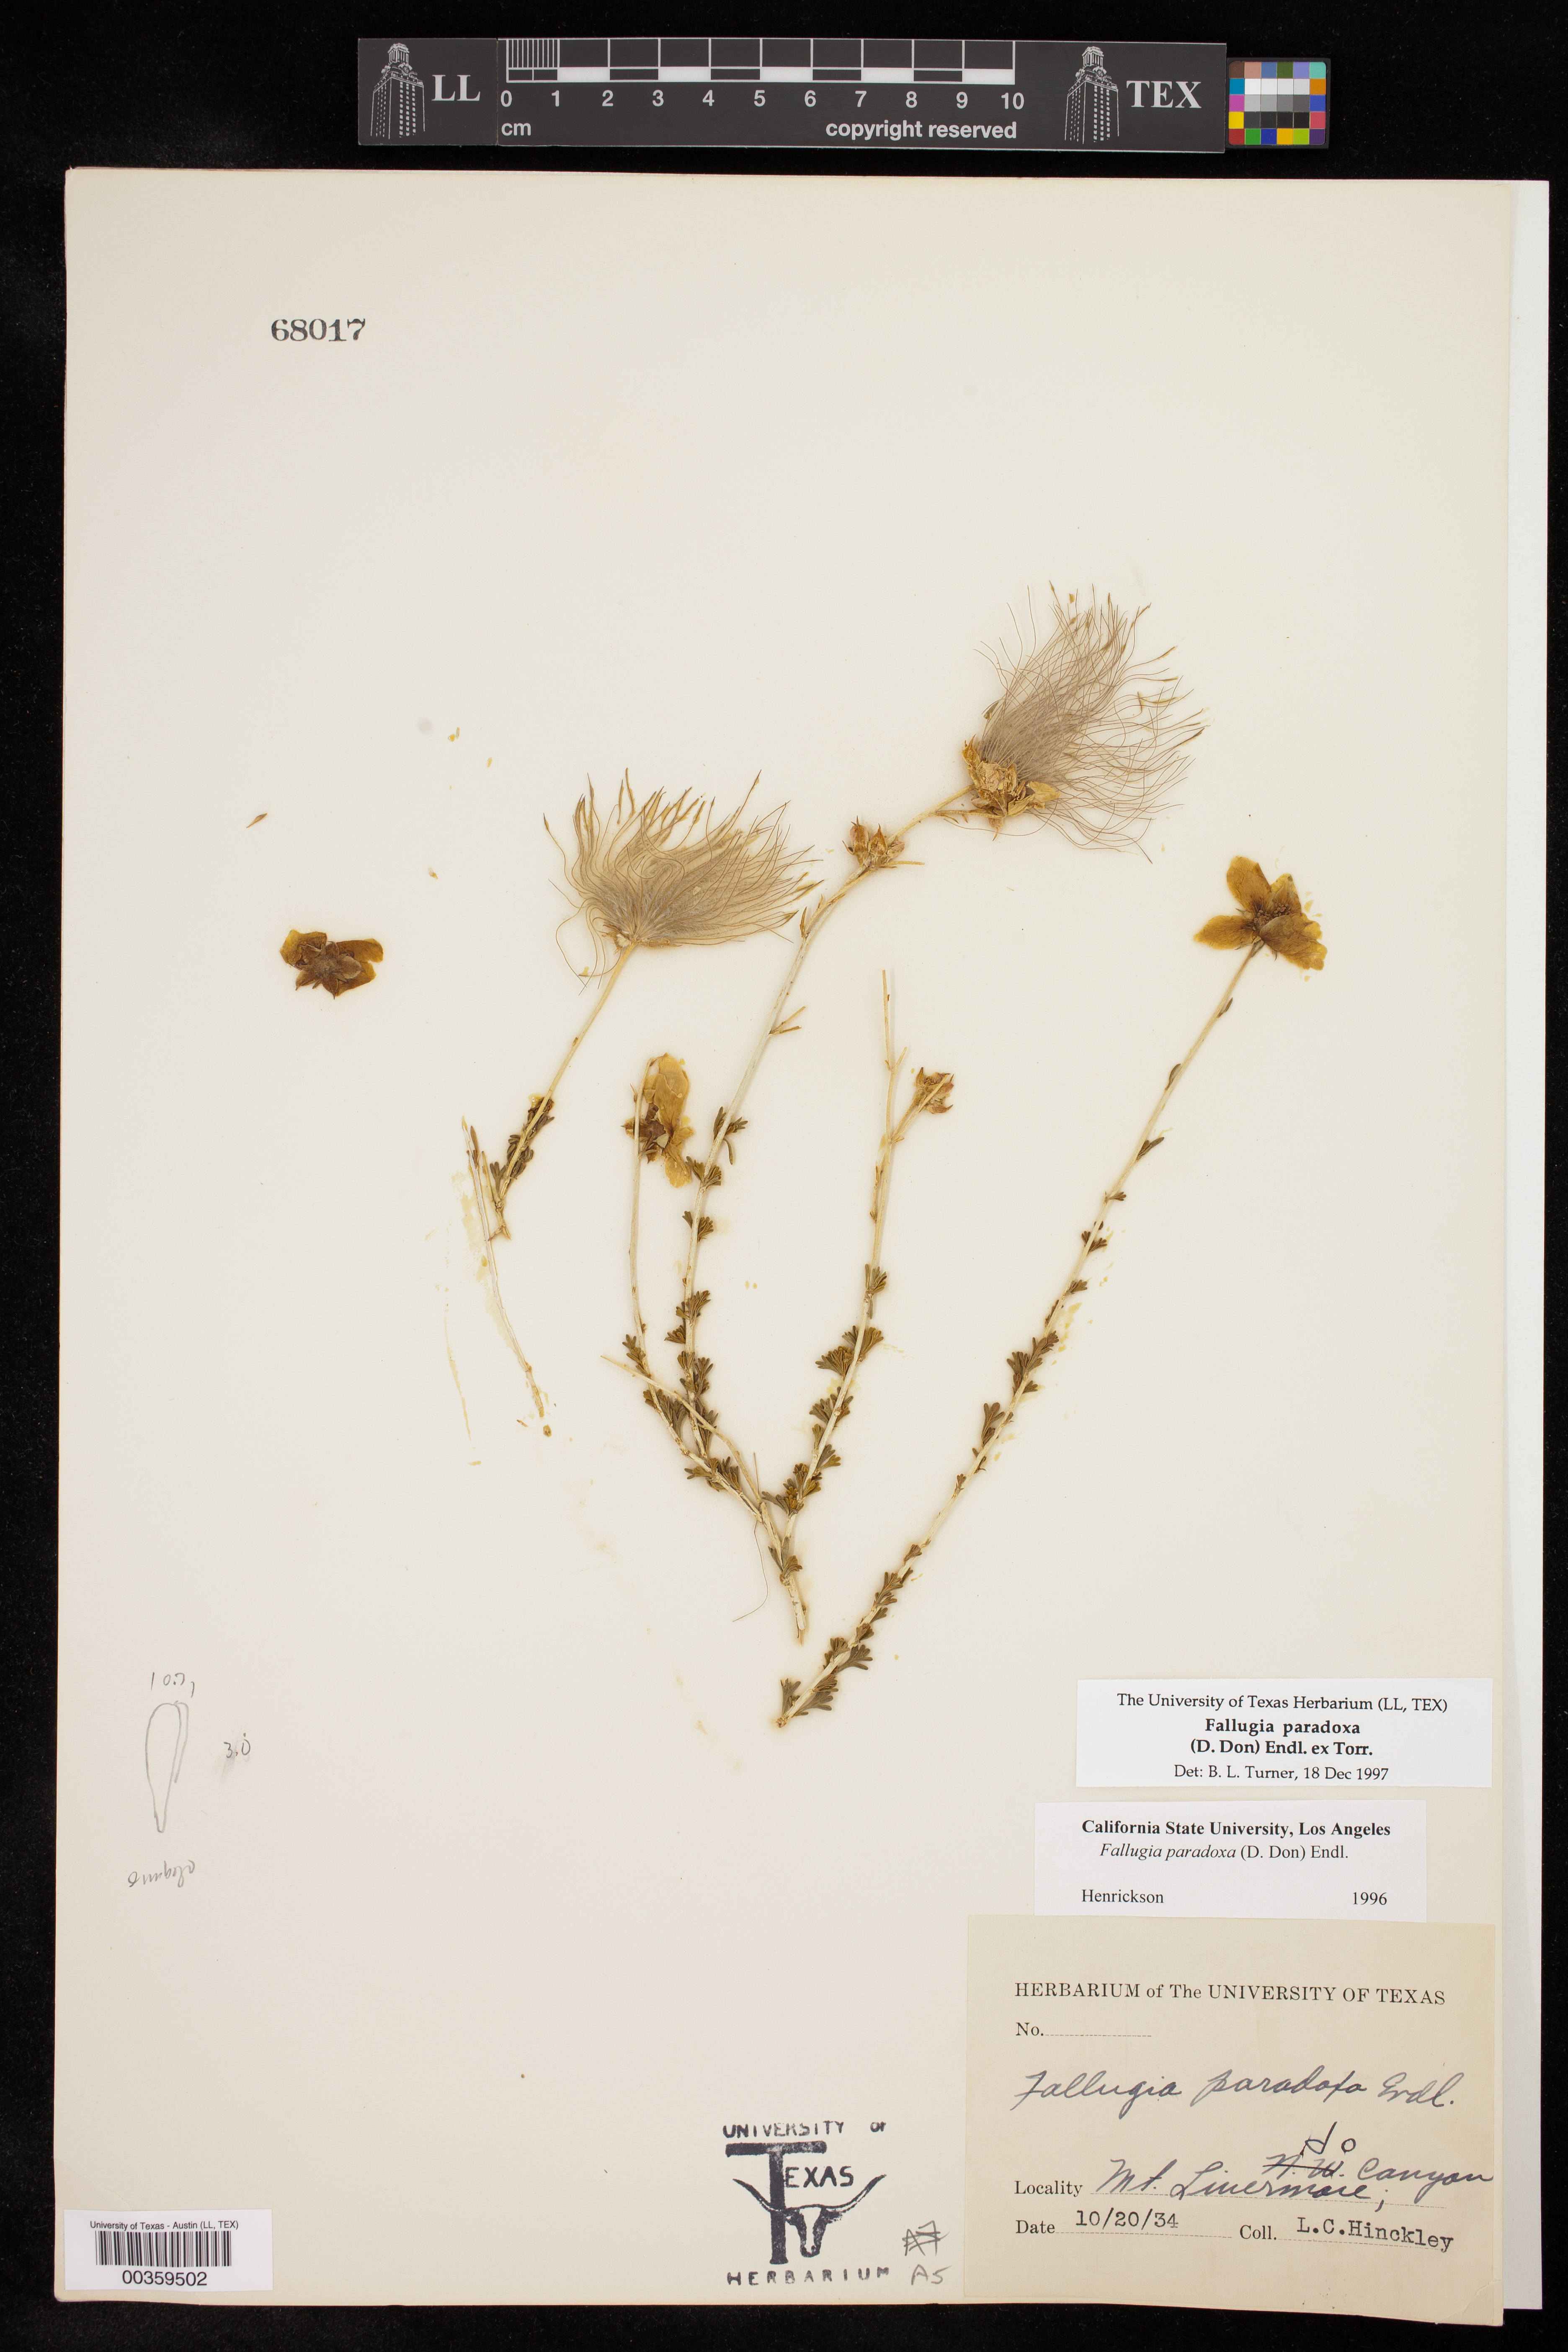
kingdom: Plantae
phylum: Tracheophyta
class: Magnoliopsida
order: Rosales
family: Rosaceae
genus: Fallugia
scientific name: Fallugia paradoxa
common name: Apache-plume
